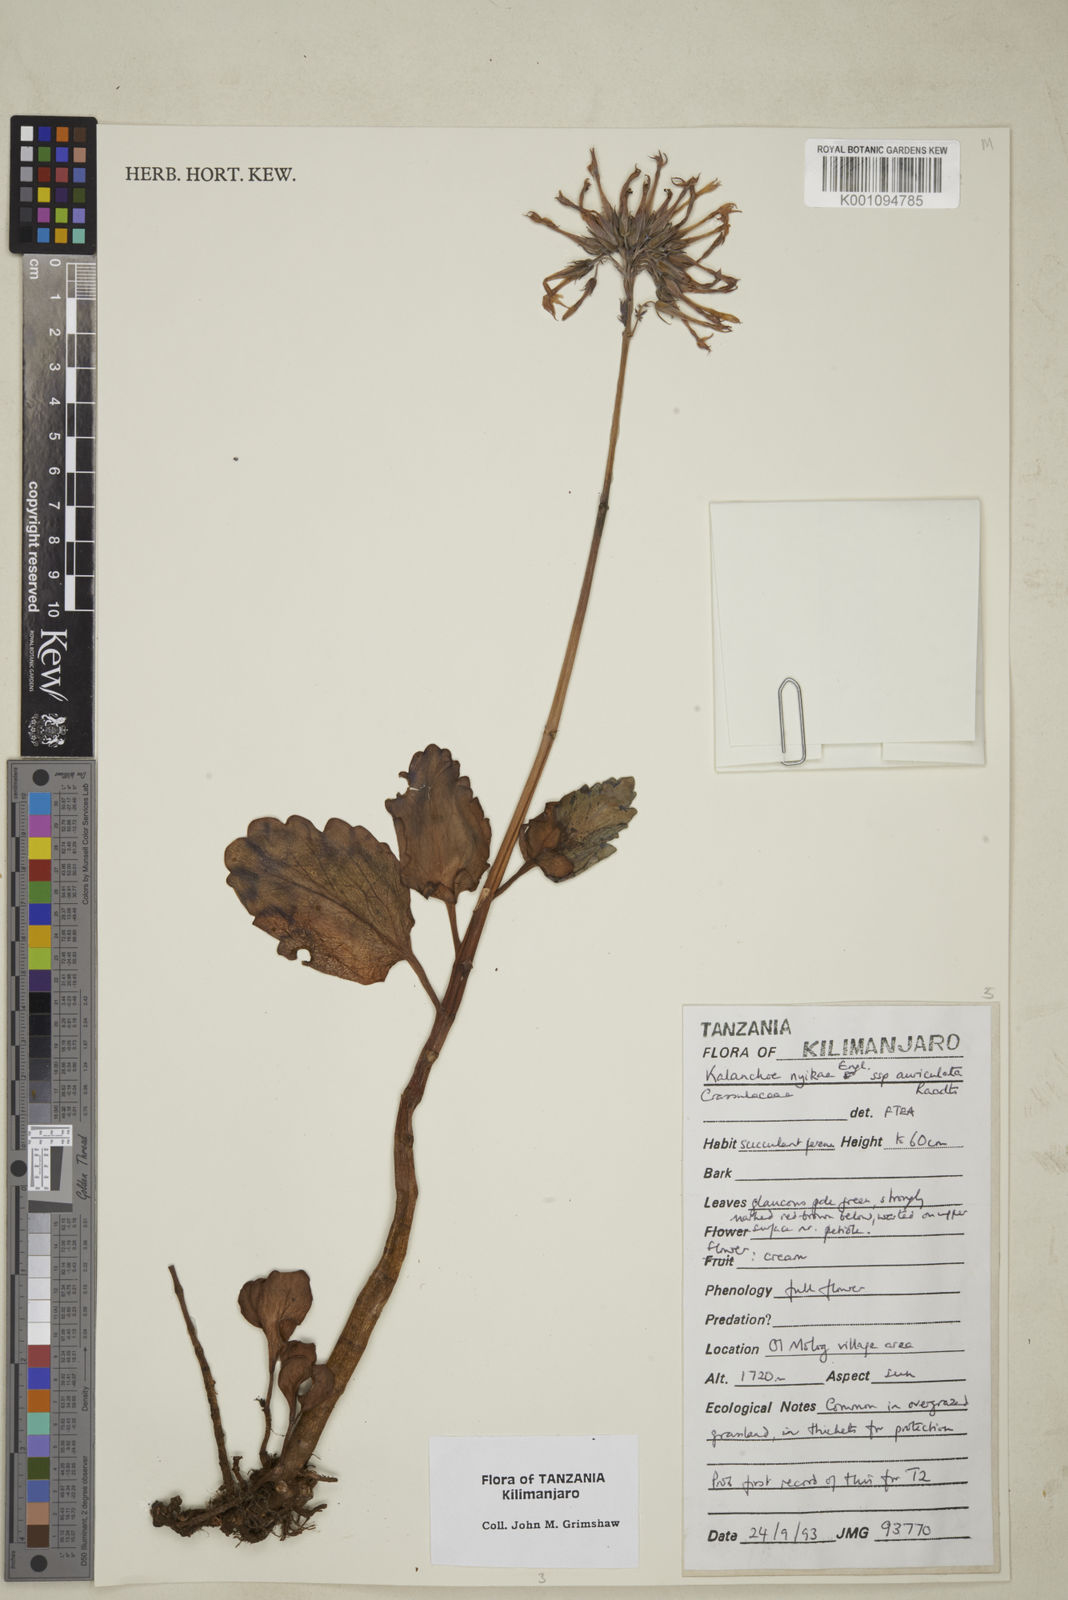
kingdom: Plantae
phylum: Tracheophyta
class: Magnoliopsida
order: Saxifragales
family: Crassulaceae
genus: Kalanchoe
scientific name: Kalanchoe nyikae
